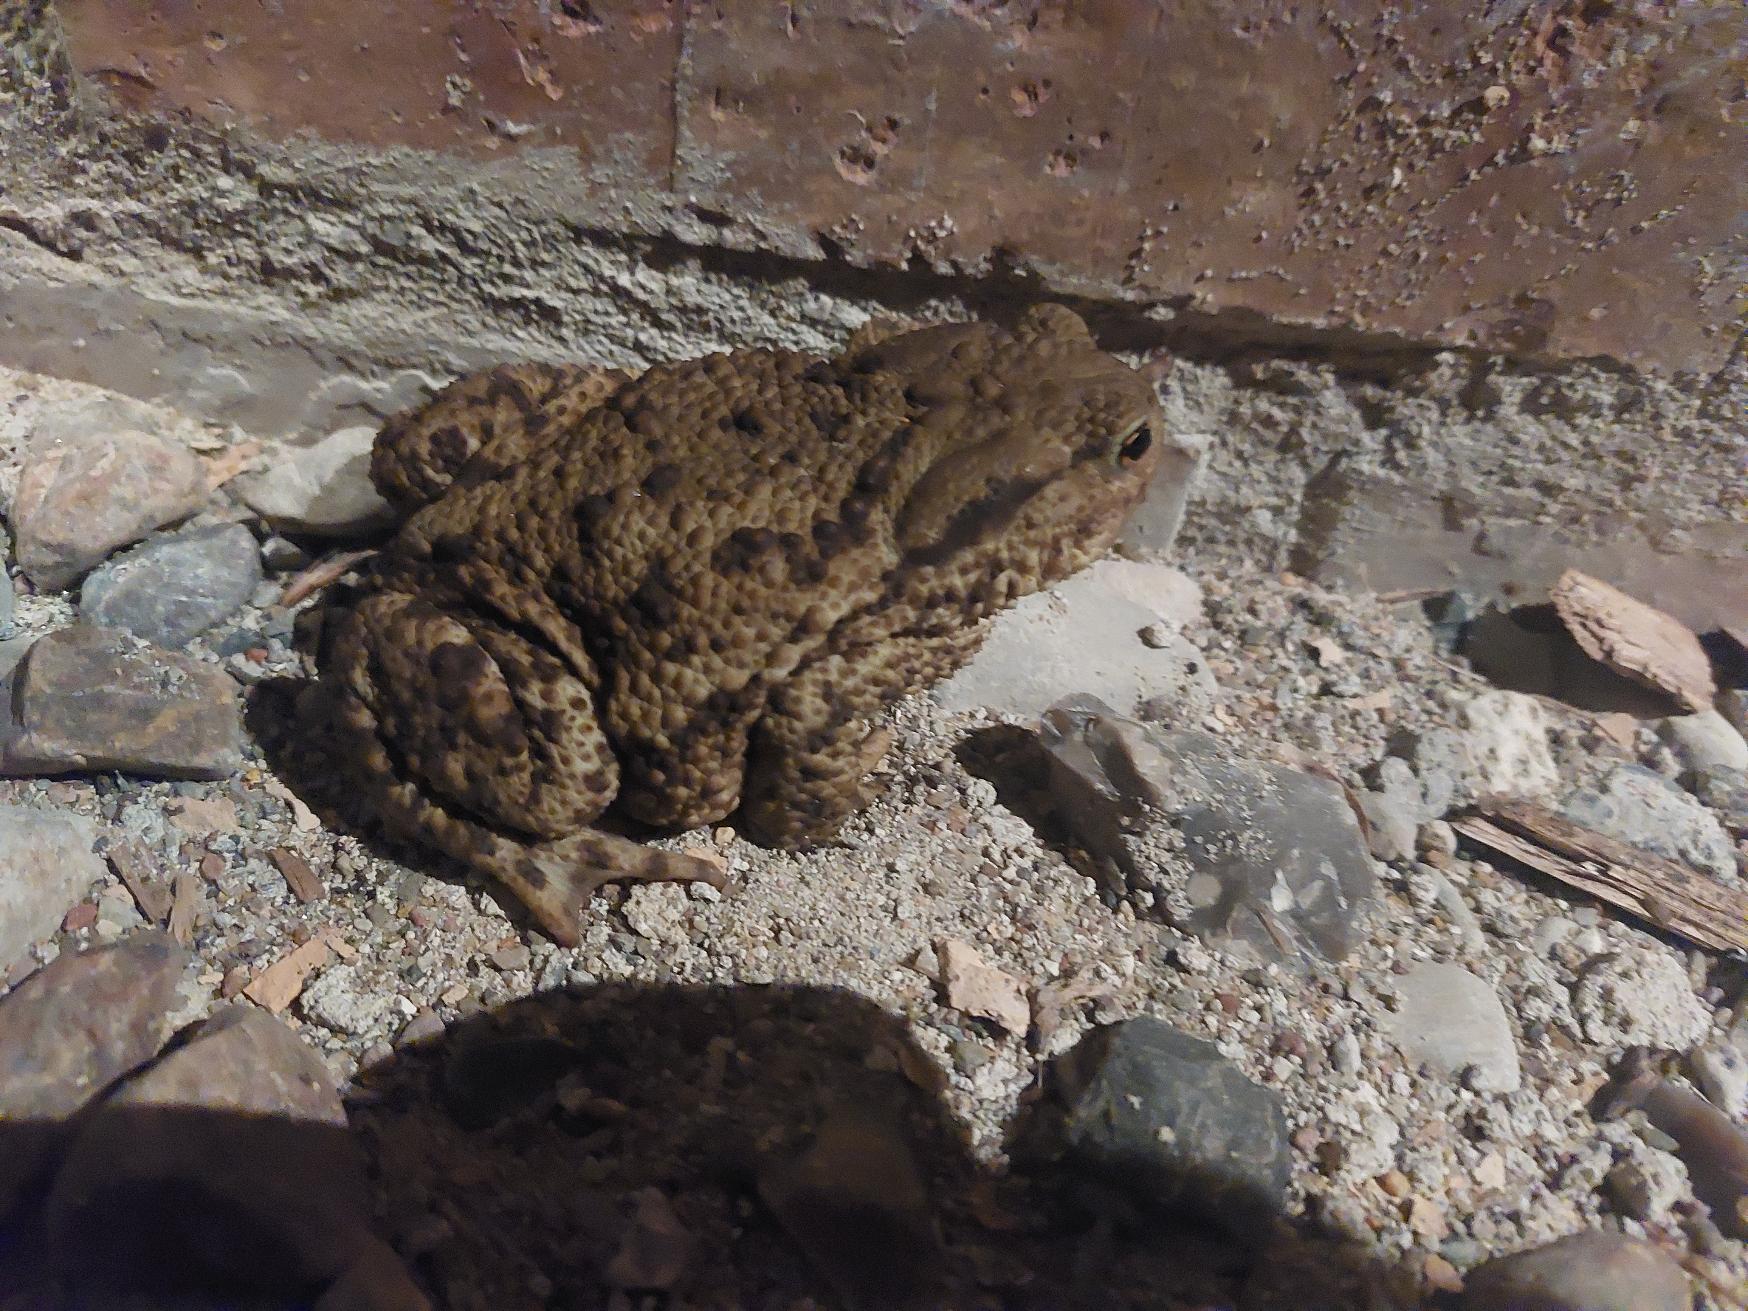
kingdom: Animalia
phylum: Chordata
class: Amphibia
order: Anura
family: Bufonidae
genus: Bufo
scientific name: Bufo bufo
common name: Skrubtudse
